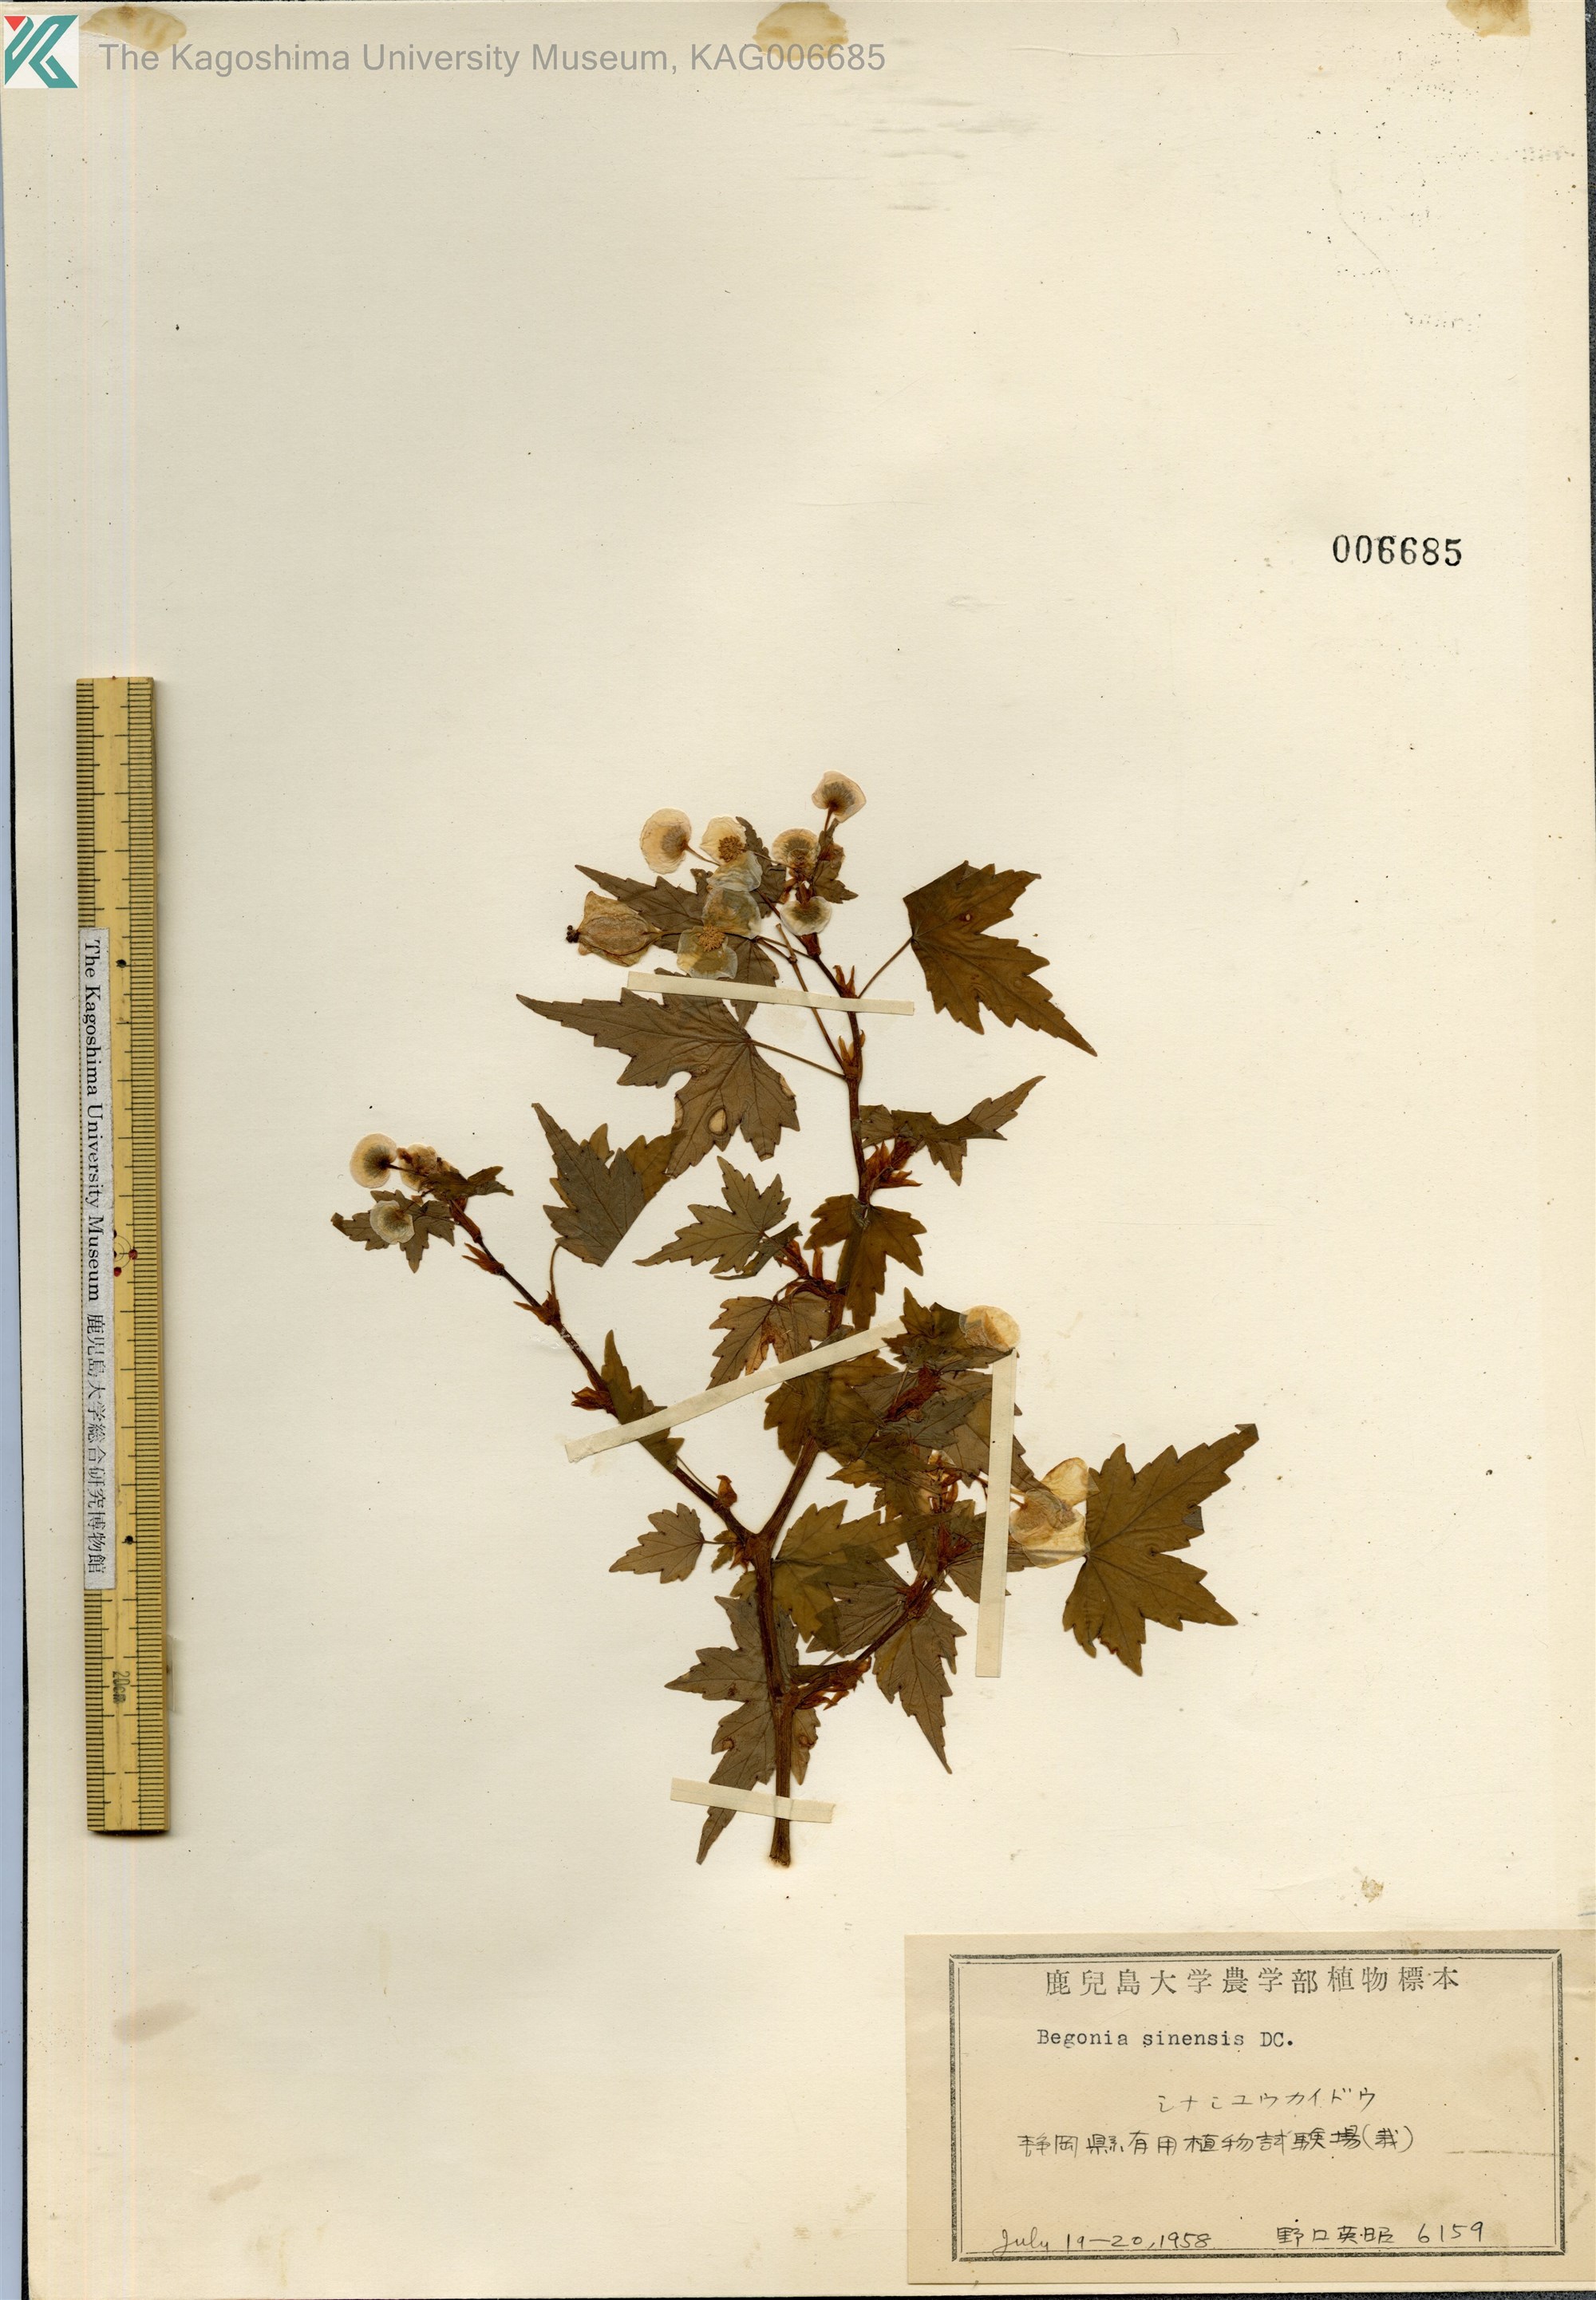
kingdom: Plantae
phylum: Tracheophyta
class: Magnoliopsida
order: Cucurbitales
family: Begoniaceae
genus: Begonia
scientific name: Begonia grandis
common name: Hardy begonia
